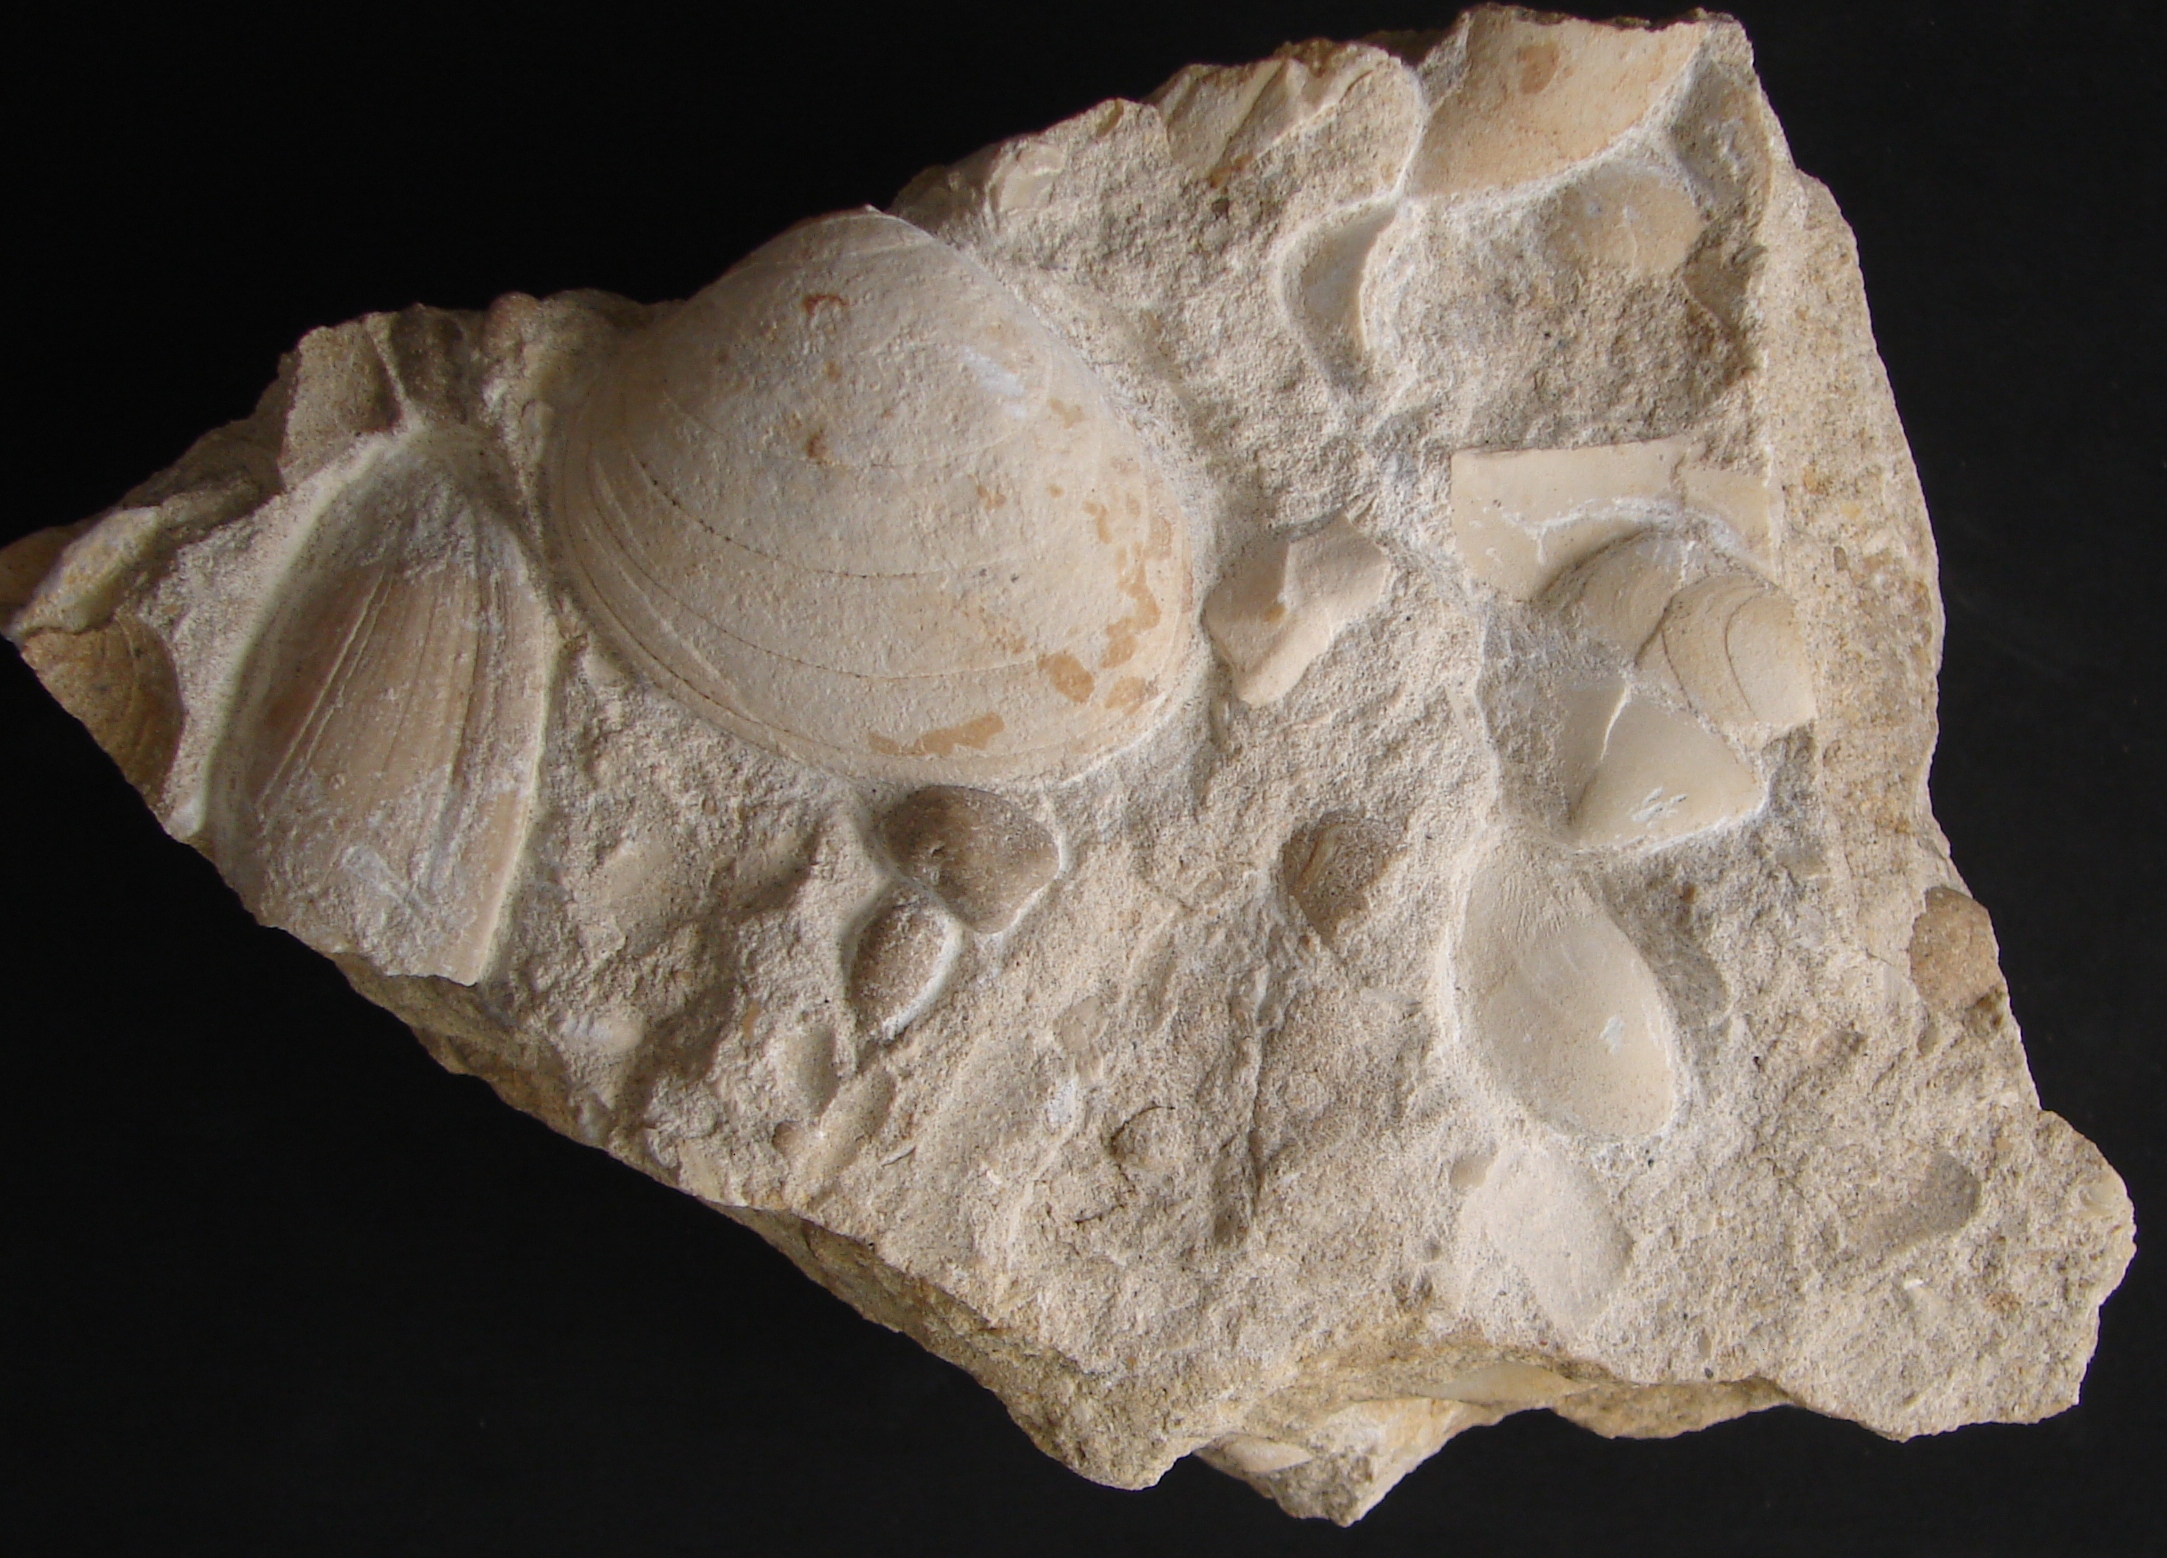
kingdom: Animalia
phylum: Mollusca
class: Bivalvia
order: Carditida
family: Cardiniidae
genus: Cardinia
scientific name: Cardinia
